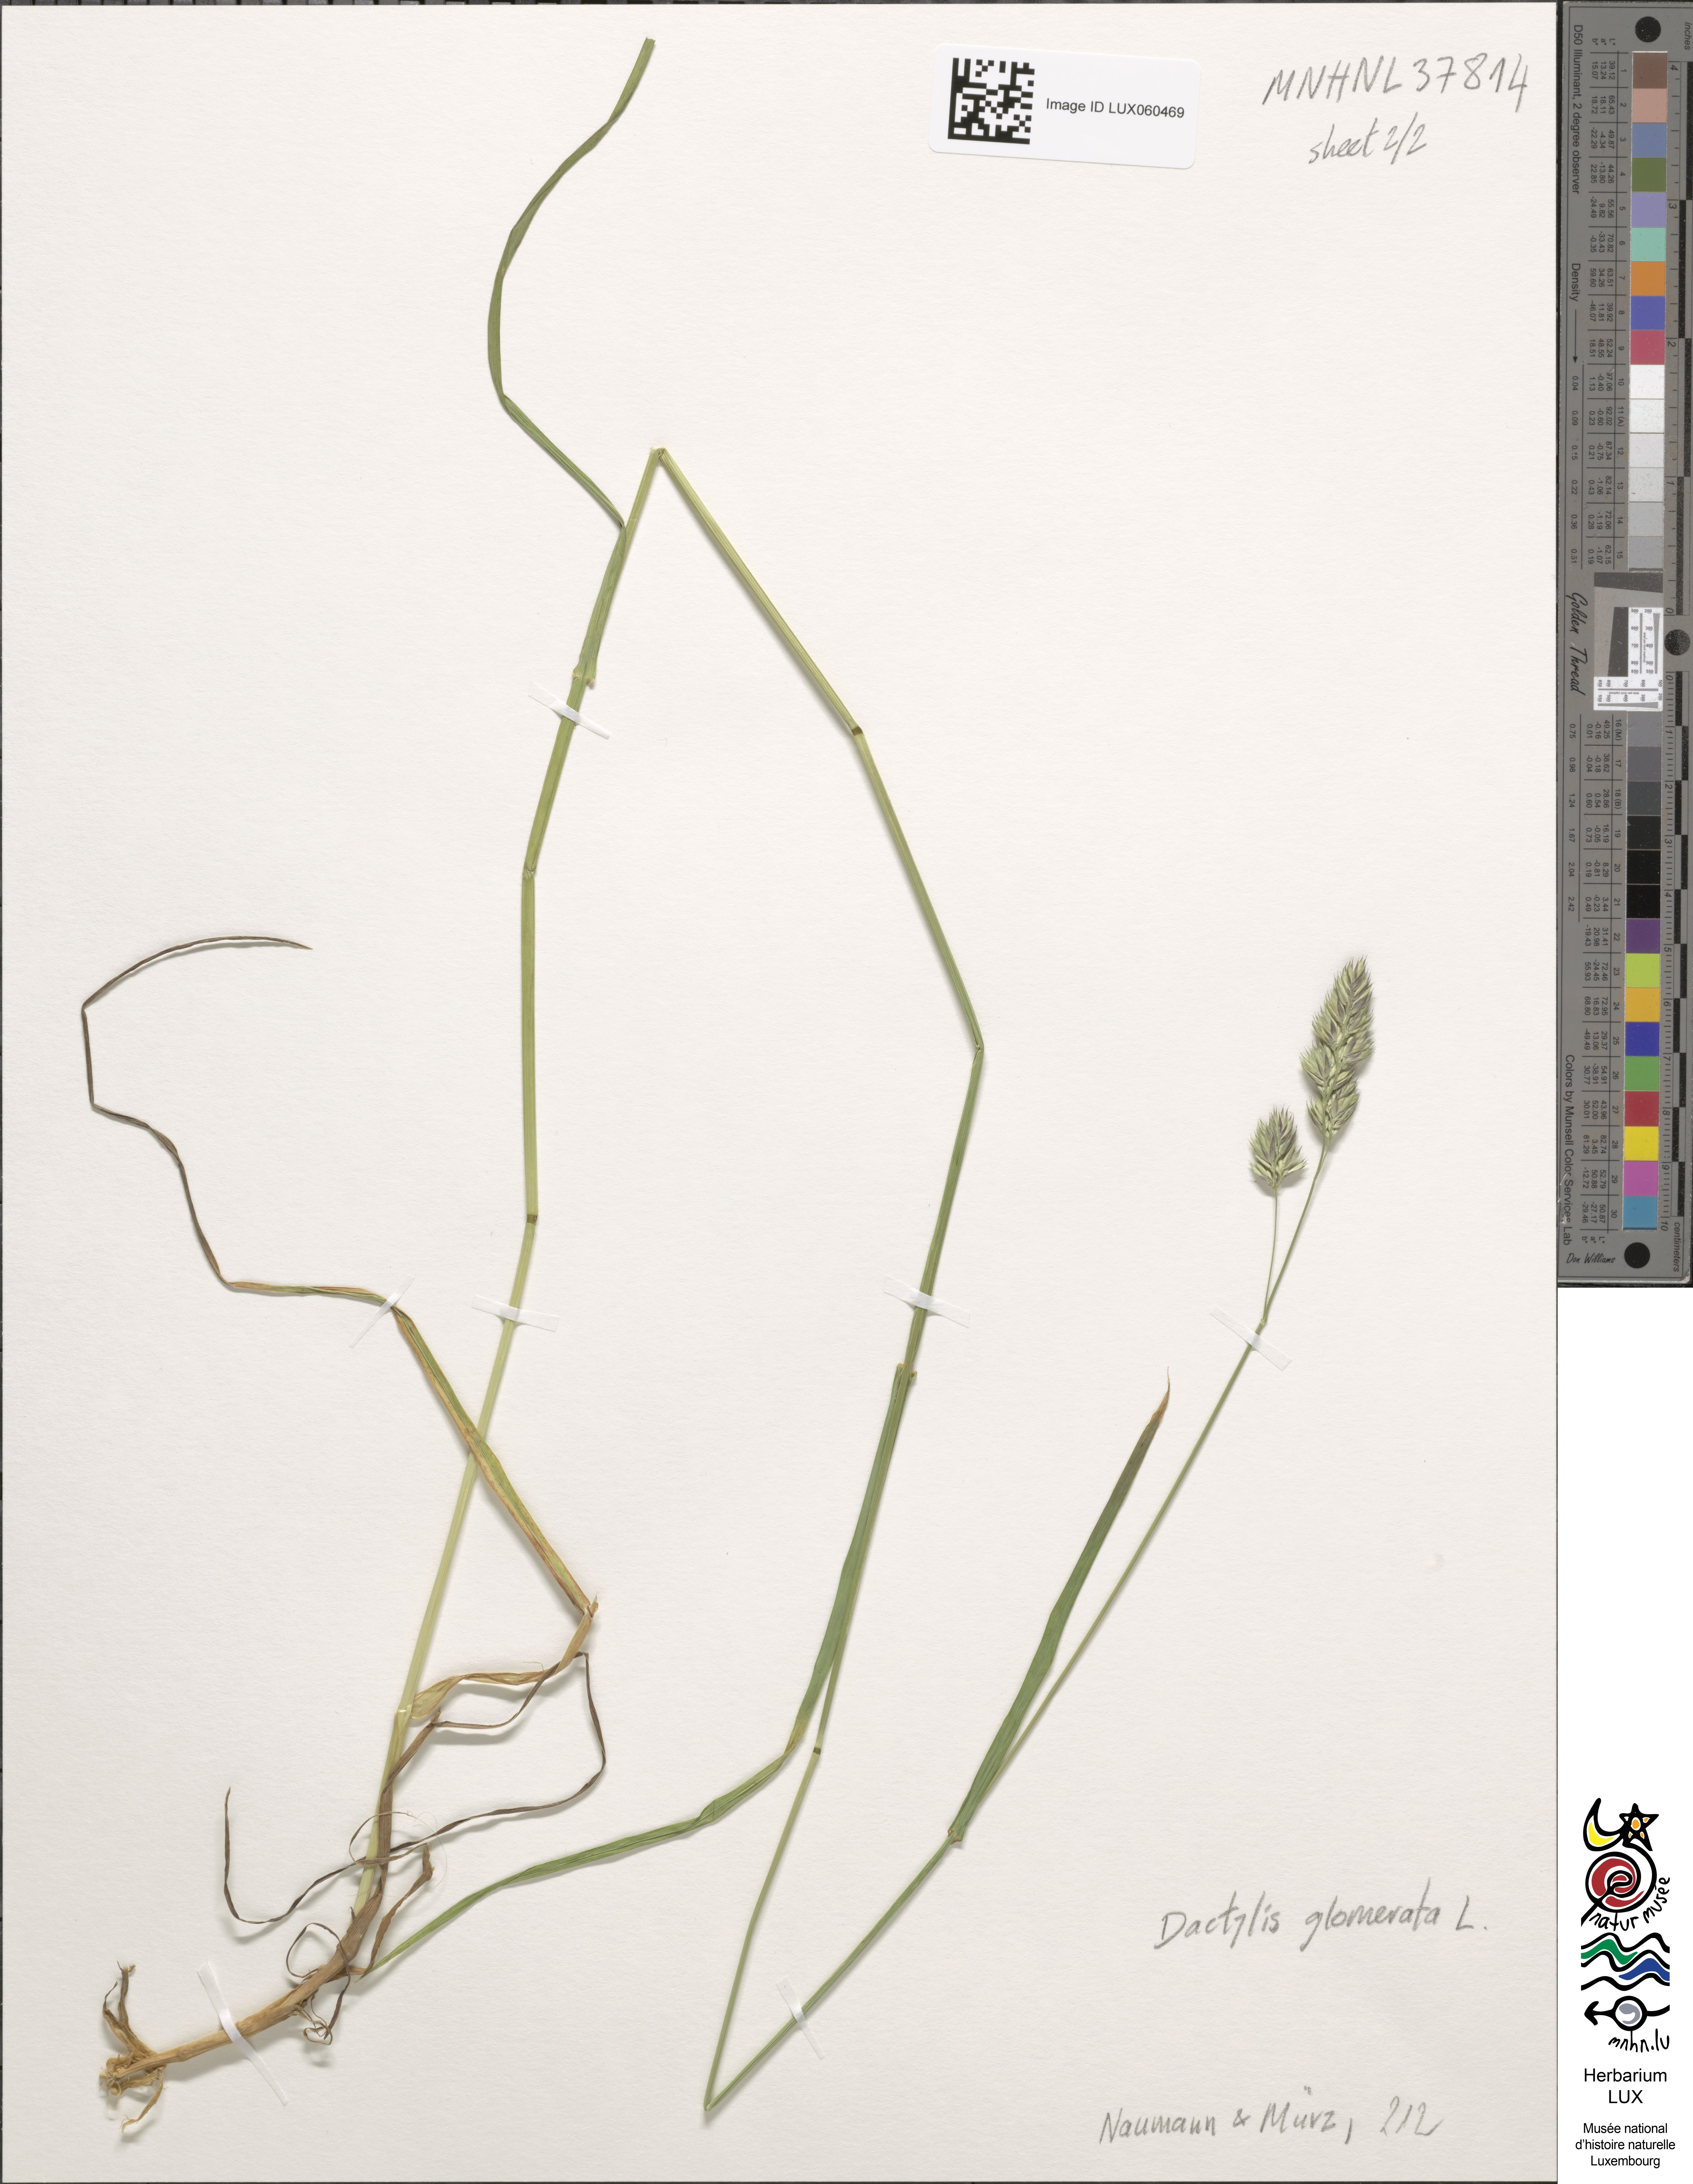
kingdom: Plantae
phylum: Tracheophyta
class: Liliopsida
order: Poales
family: Poaceae
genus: Dactylis
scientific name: Dactylis glomerata
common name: Orchardgrass
